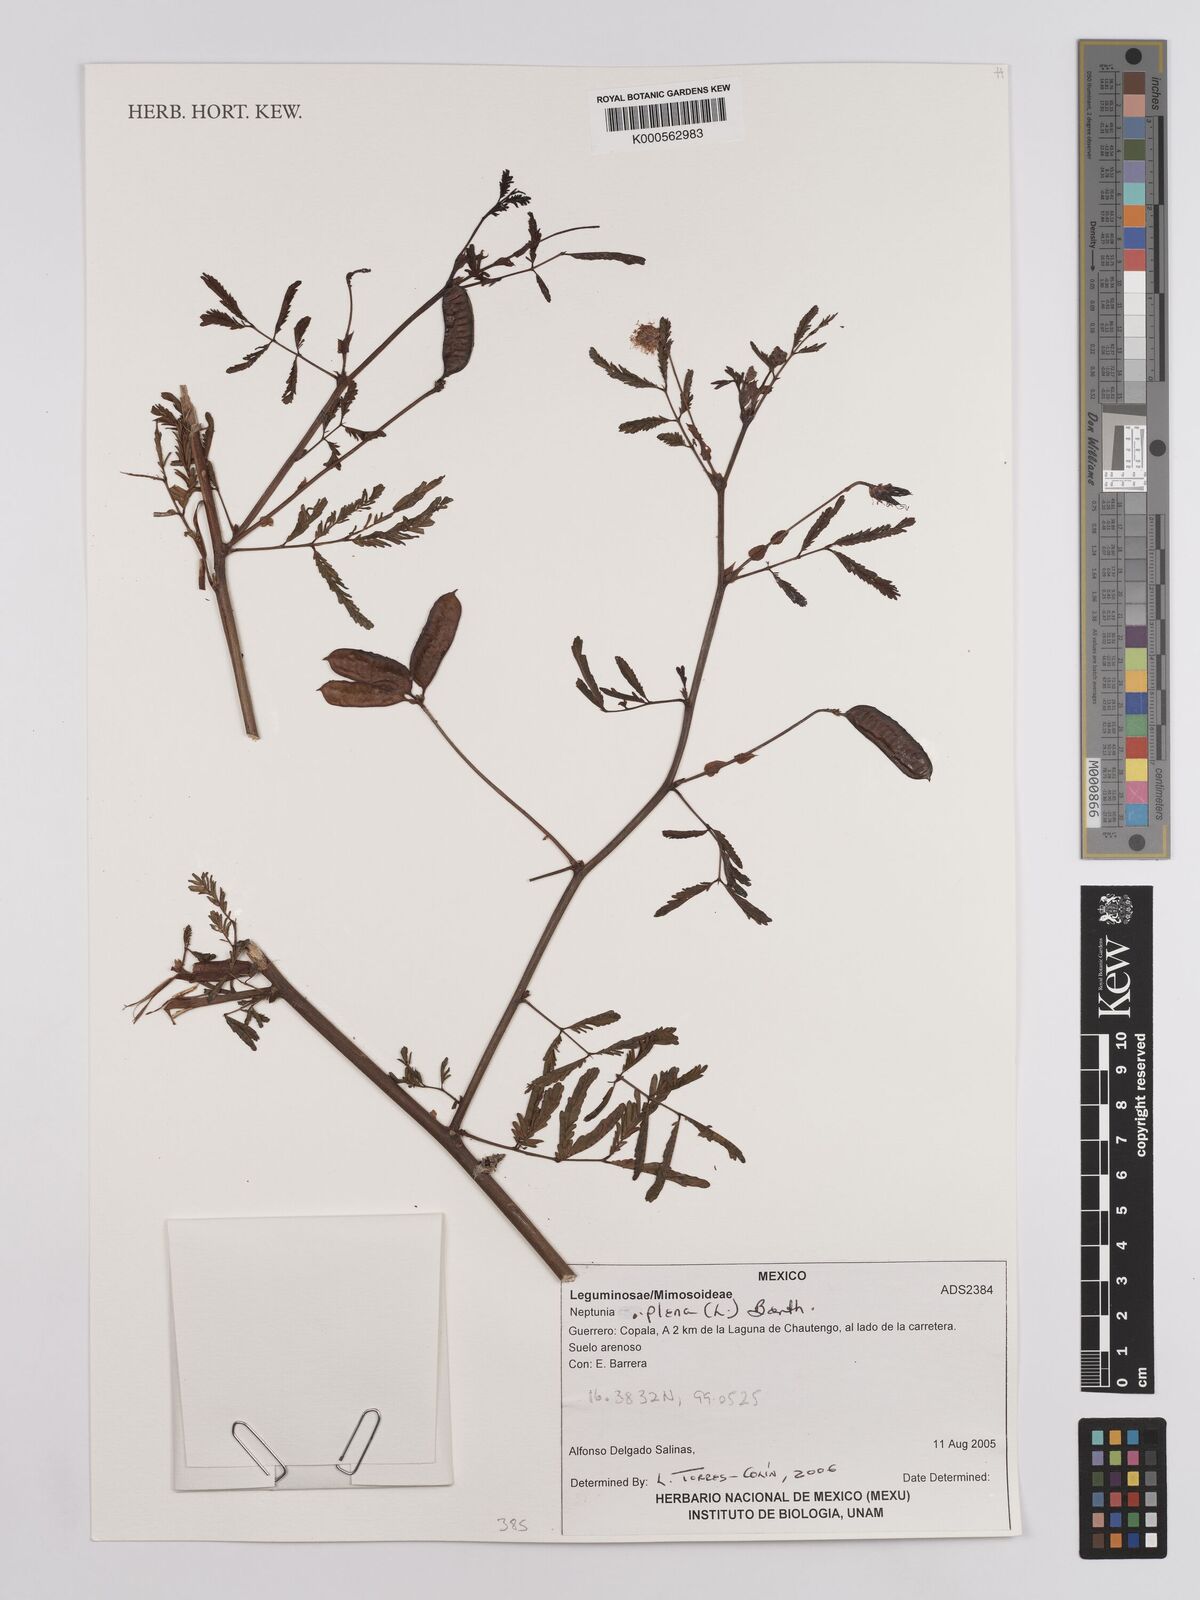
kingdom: Plantae
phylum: Tracheophyta
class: Magnoliopsida
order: Fabales
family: Fabaceae
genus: Neptunia
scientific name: Neptunia plena
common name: Dead and awake
